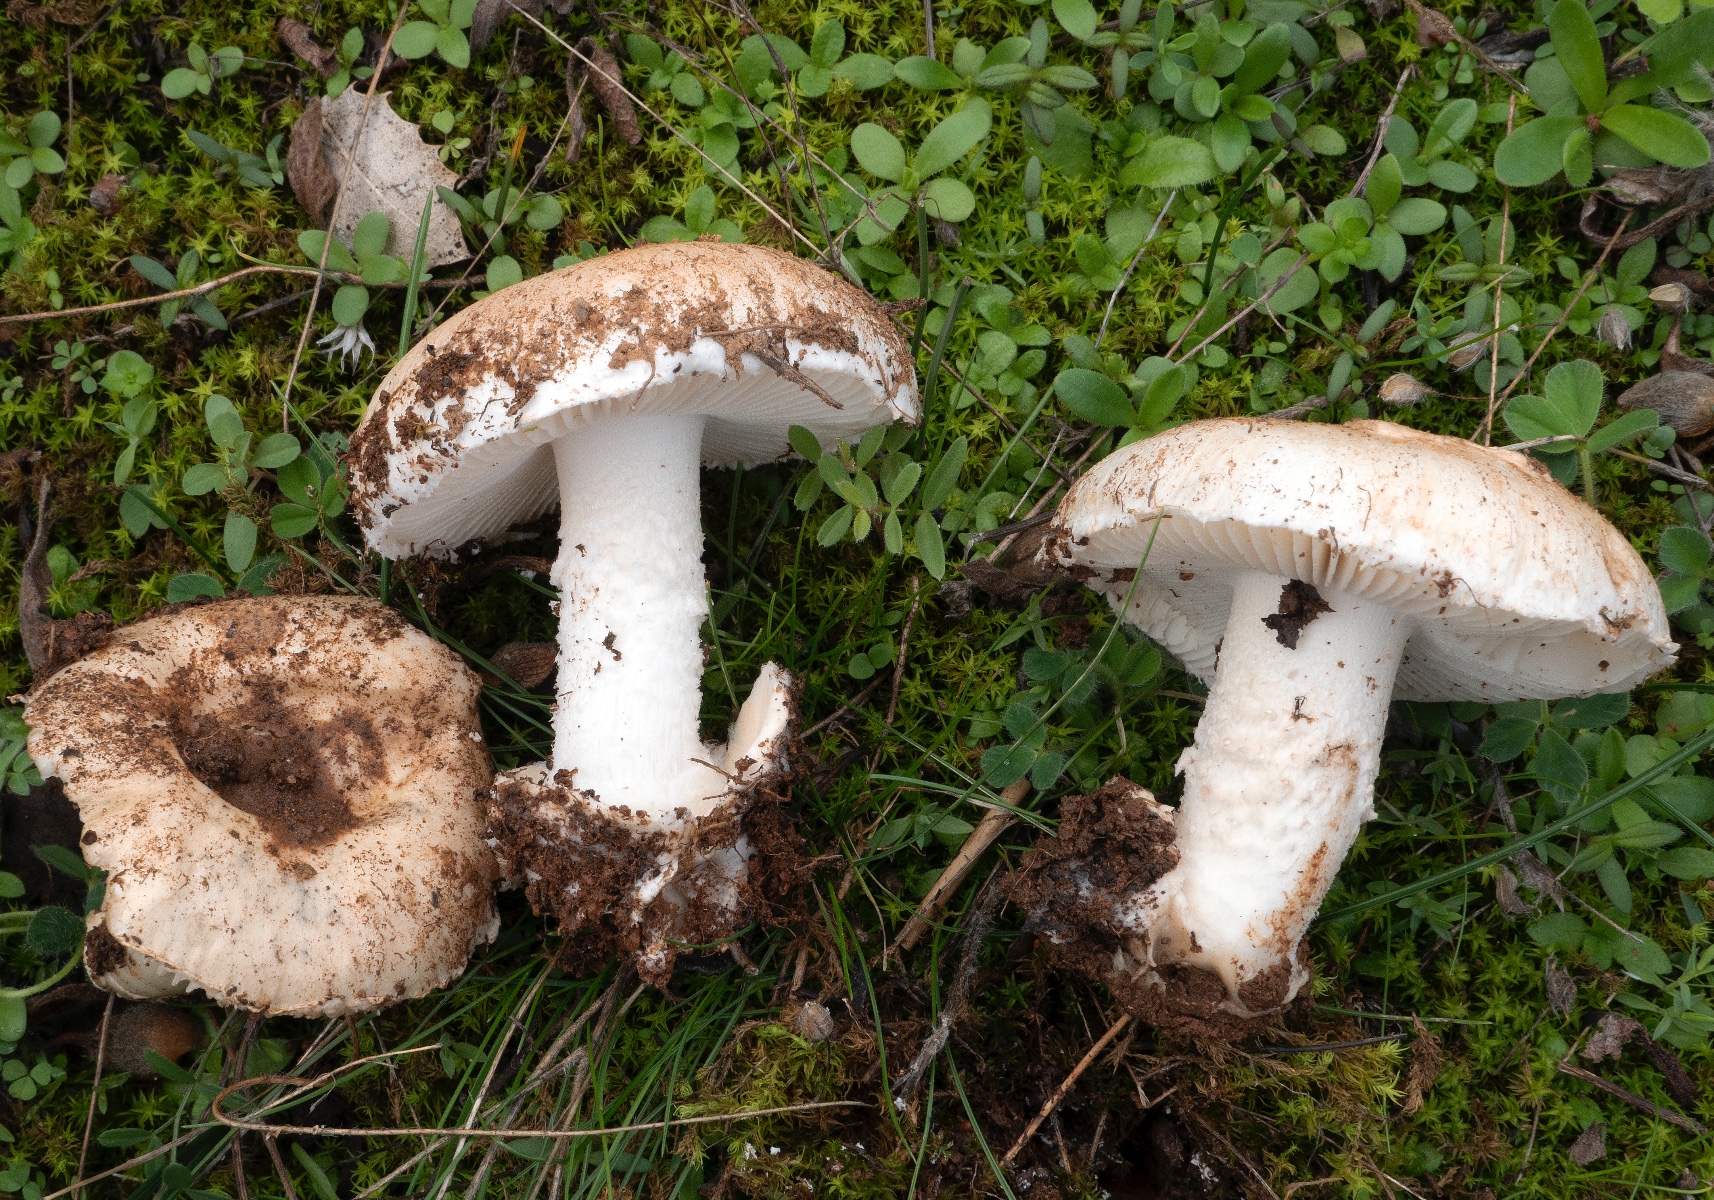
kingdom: Fungi
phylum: Basidiomycota
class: Agaricomycetes
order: Agaricales
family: Amanitaceae
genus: Amanita
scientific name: Amanita
